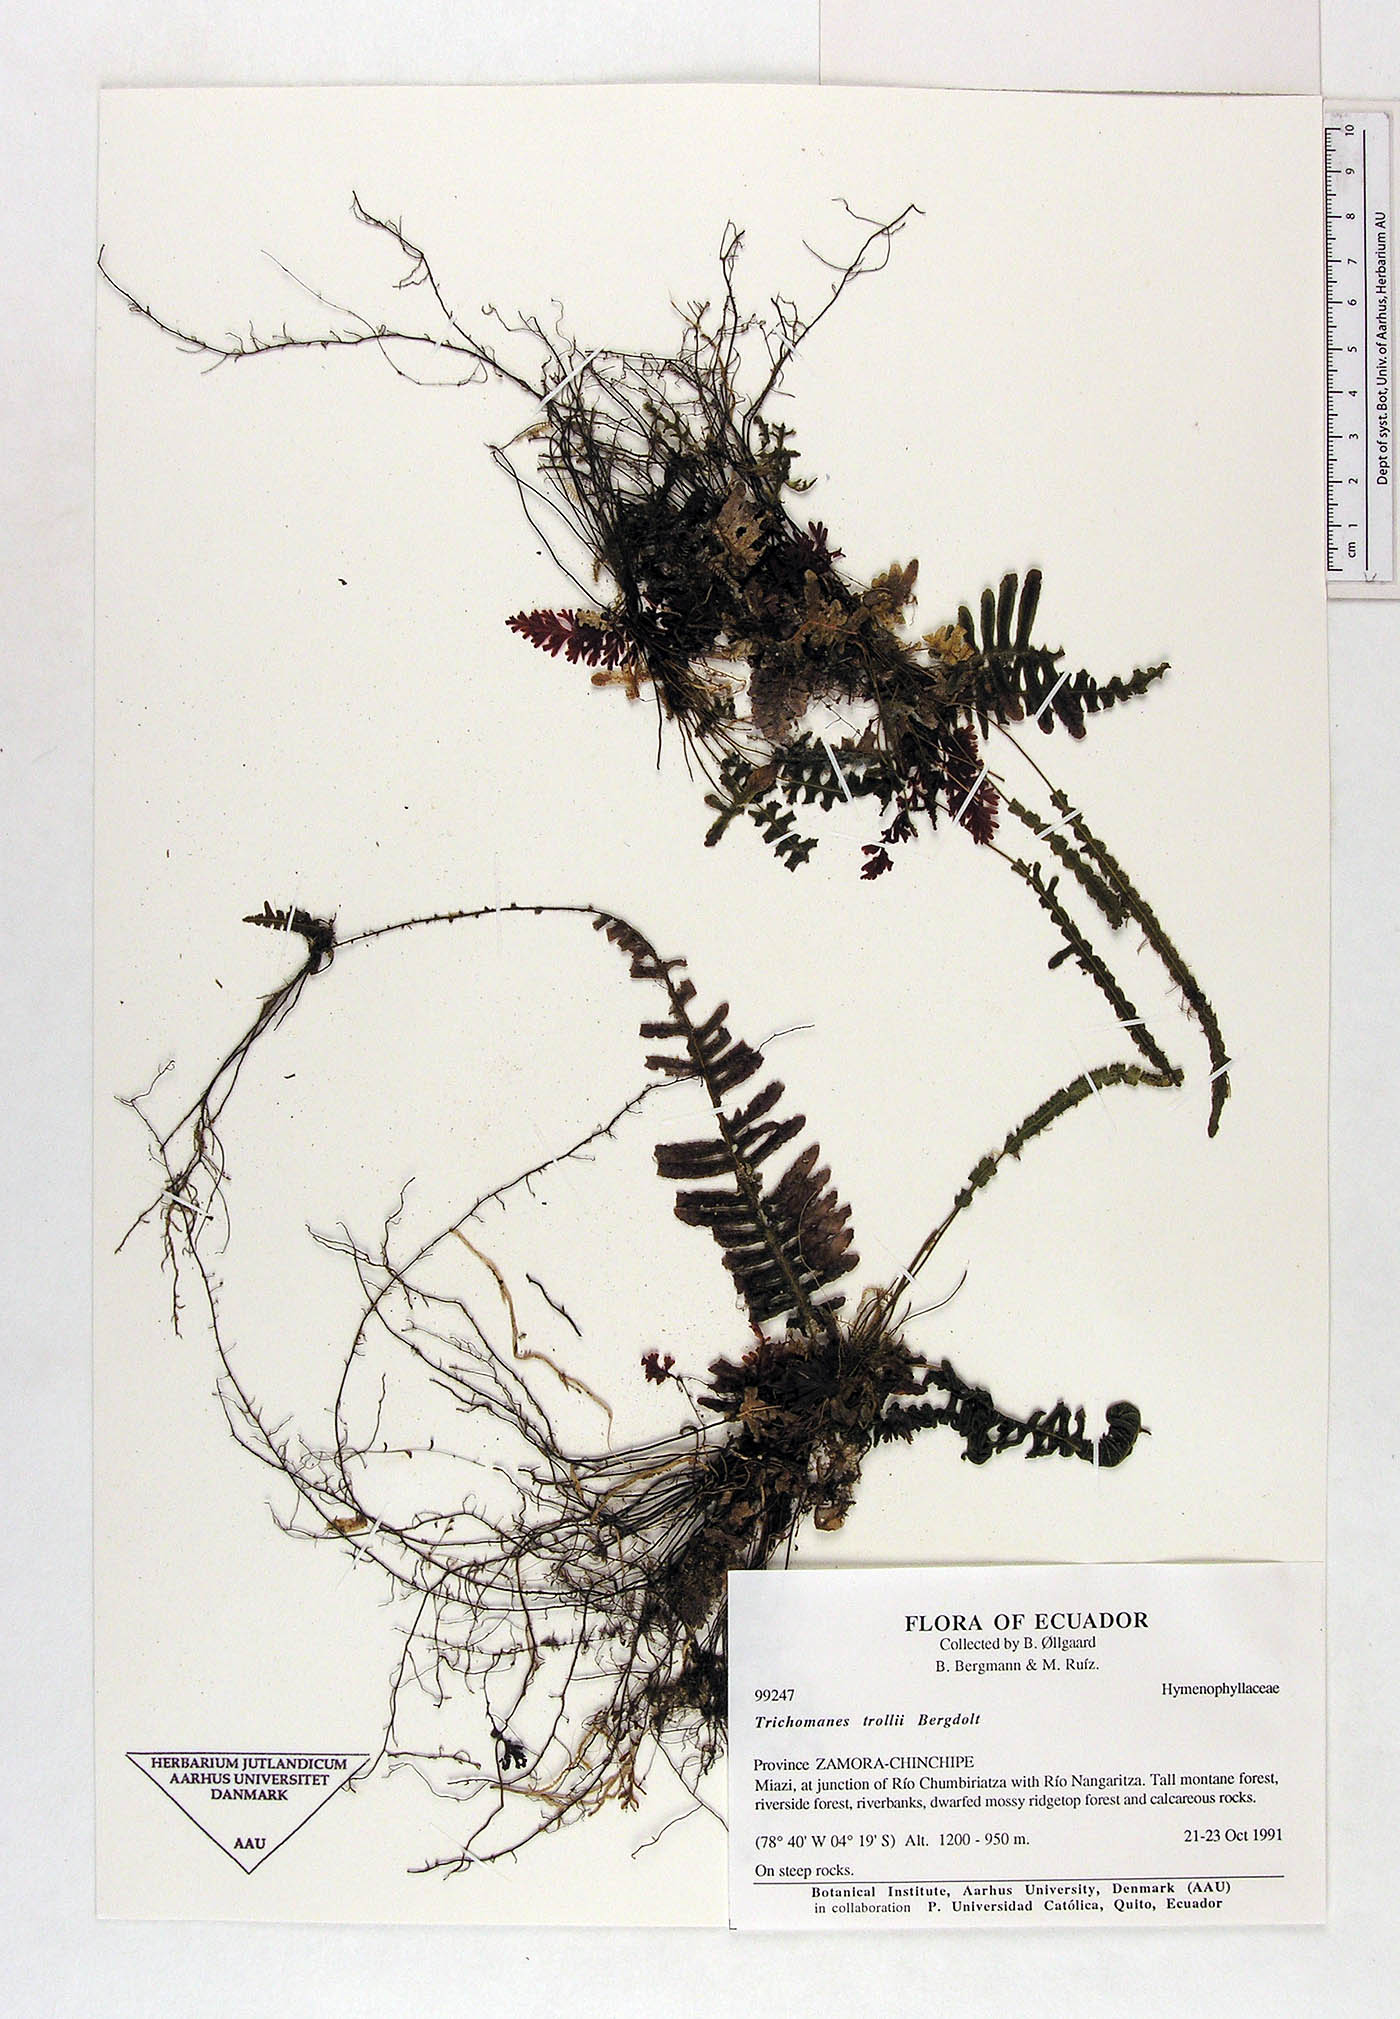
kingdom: Plantae
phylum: Tracheophyta
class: Polypodiopsida
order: Hymenophyllales
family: Hymenophyllaceae
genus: Trichomanes
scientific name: Trichomanes trollii
